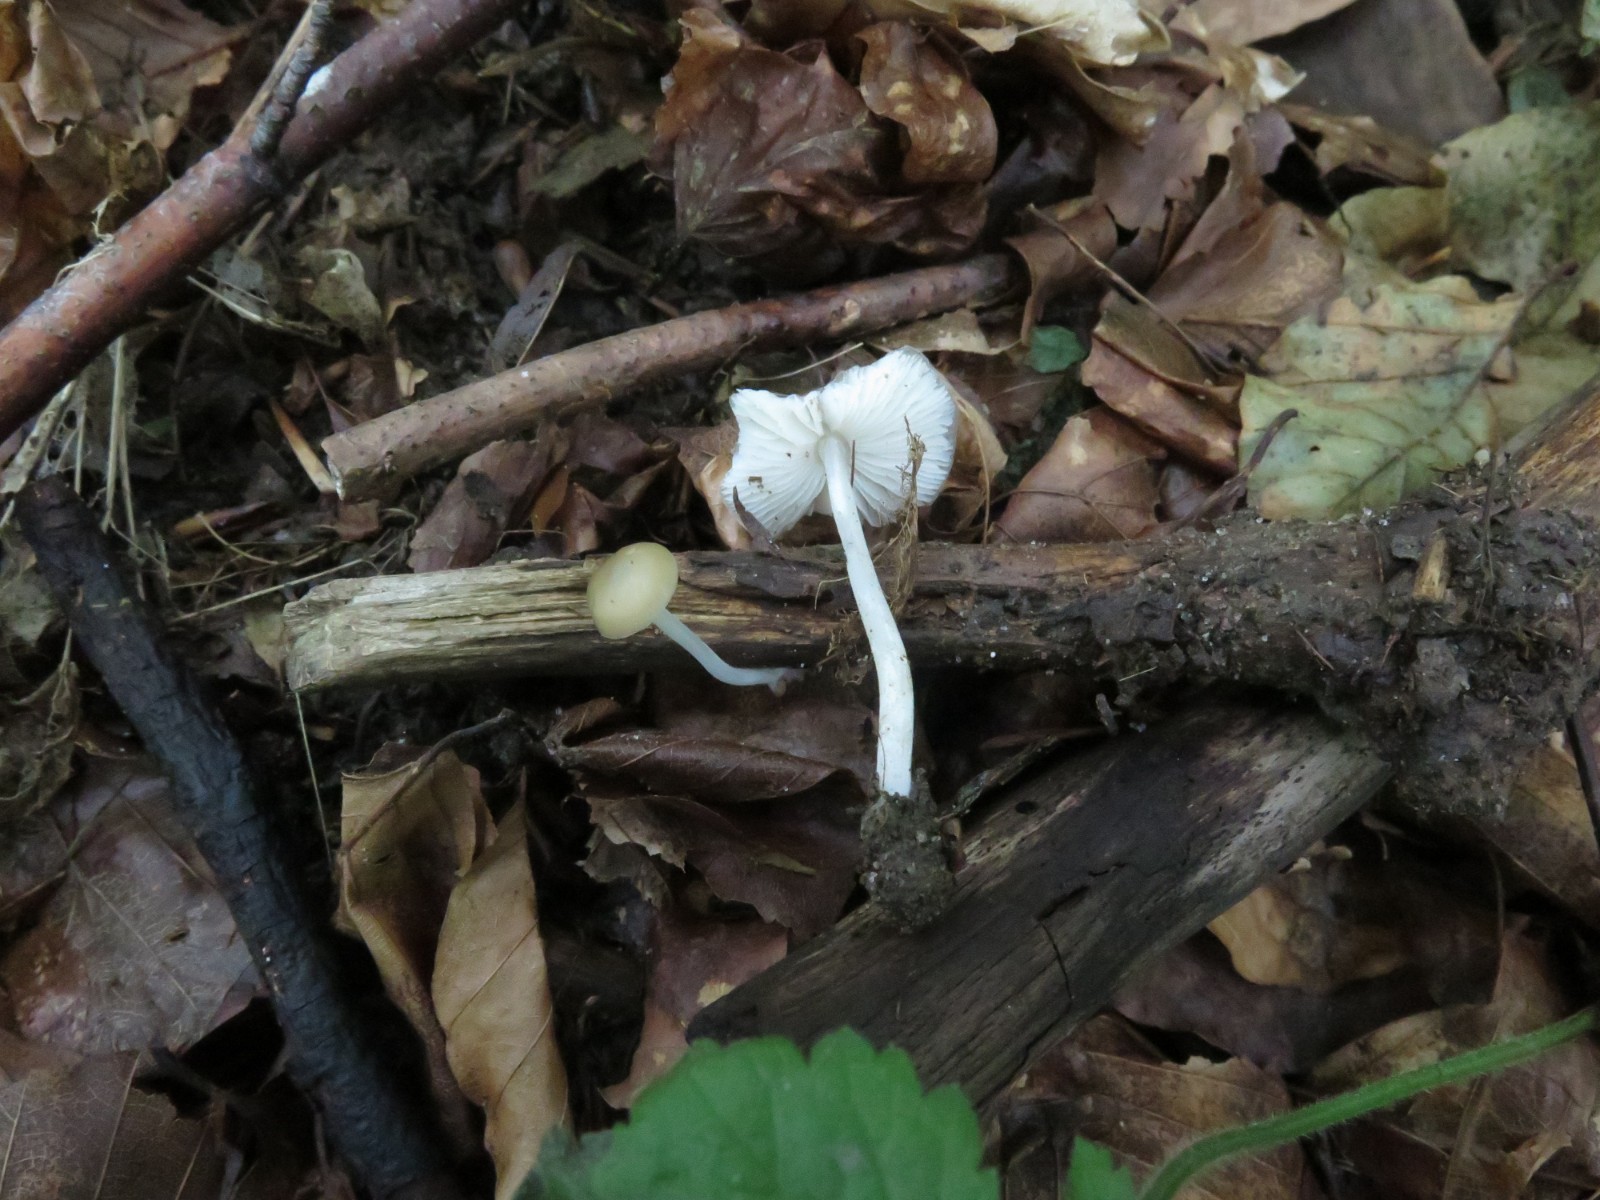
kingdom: Fungi
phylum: Basidiomycota
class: Agaricomycetes
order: Agaricales
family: Porotheleaceae
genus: Hydropodia
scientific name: Hydropodia subalpina
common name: vår-fnugfod
